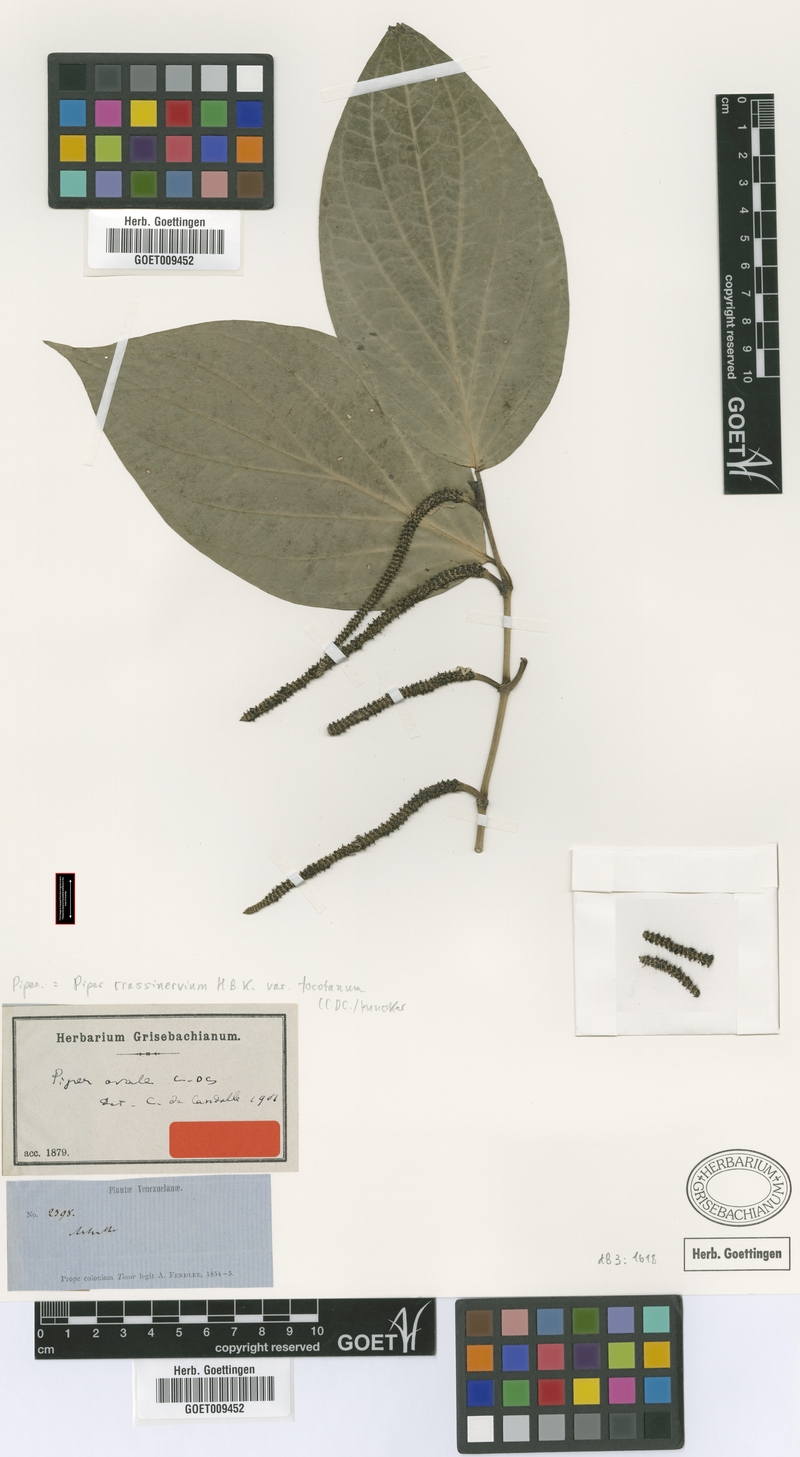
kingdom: Plantae
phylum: Tracheophyta
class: Magnoliopsida
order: Piperales
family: Piperaceae
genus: Piper
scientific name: Piper crassinervium
